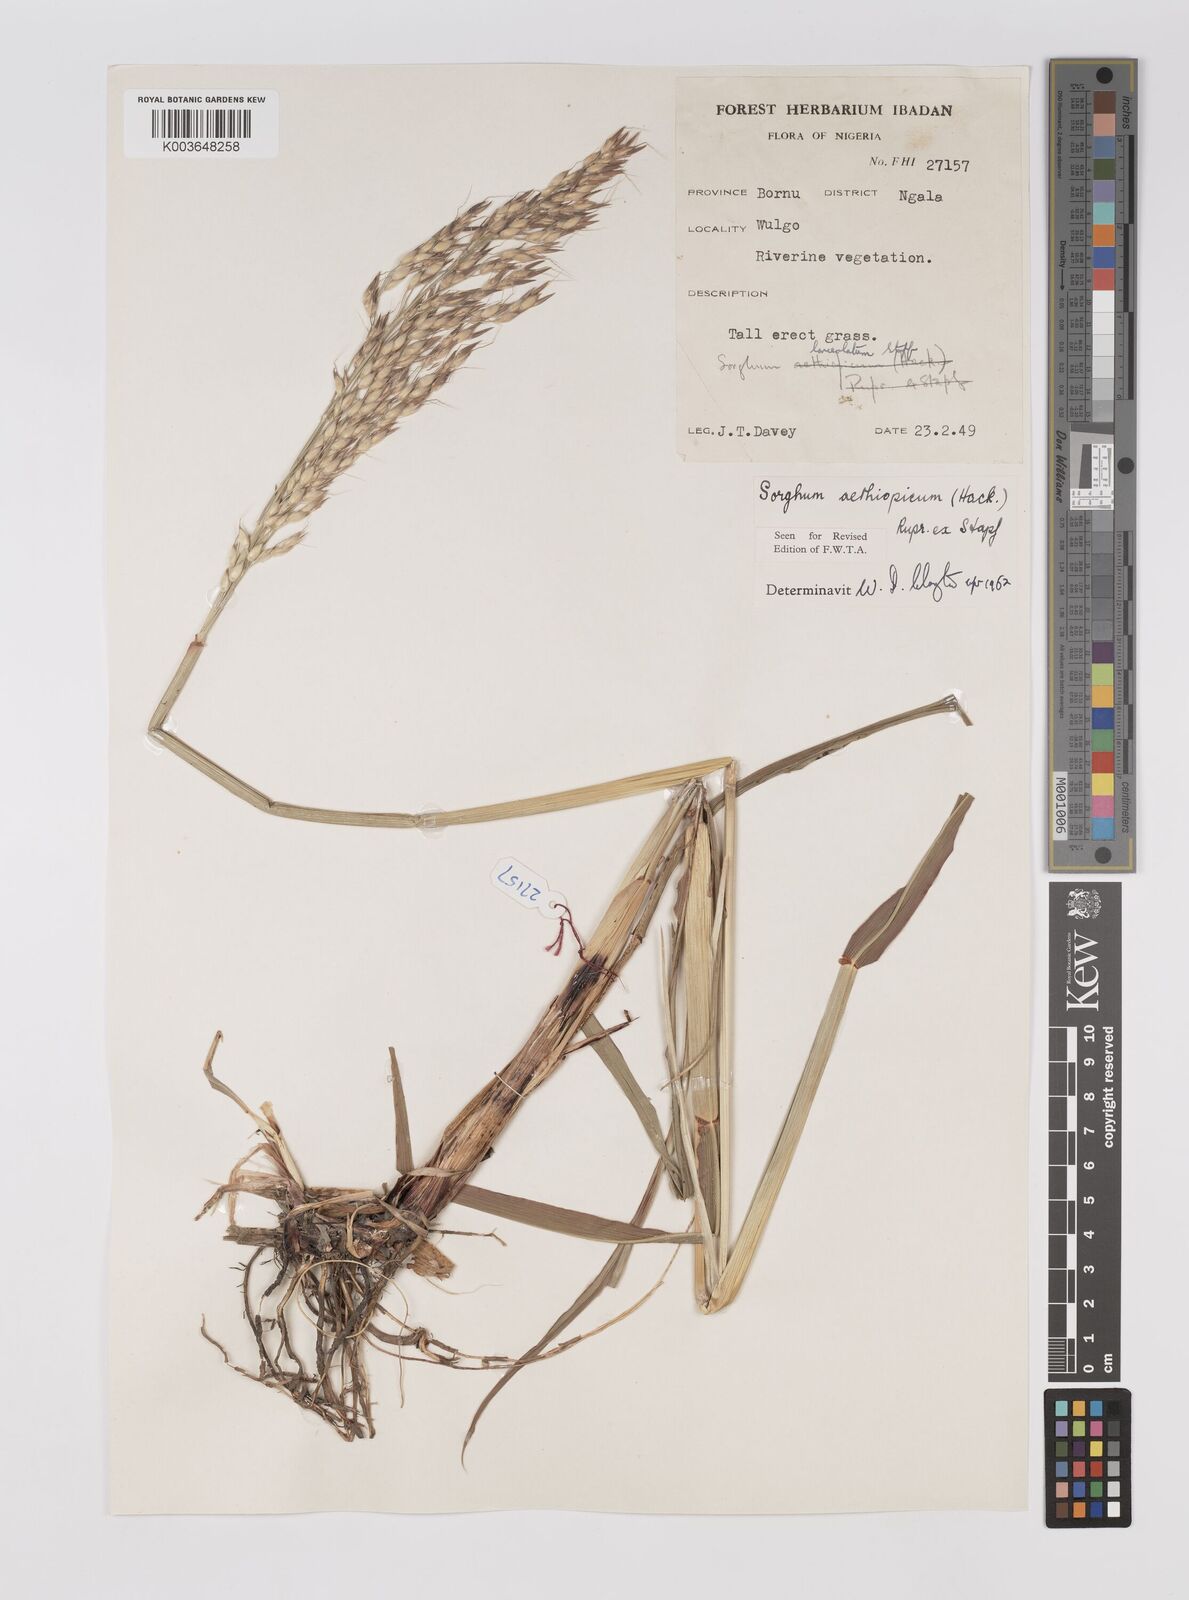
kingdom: Plantae
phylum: Tracheophyta
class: Liliopsida
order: Poales
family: Poaceae
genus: Sorghum
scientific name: Sorghum arundinaceum
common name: Sorghum
